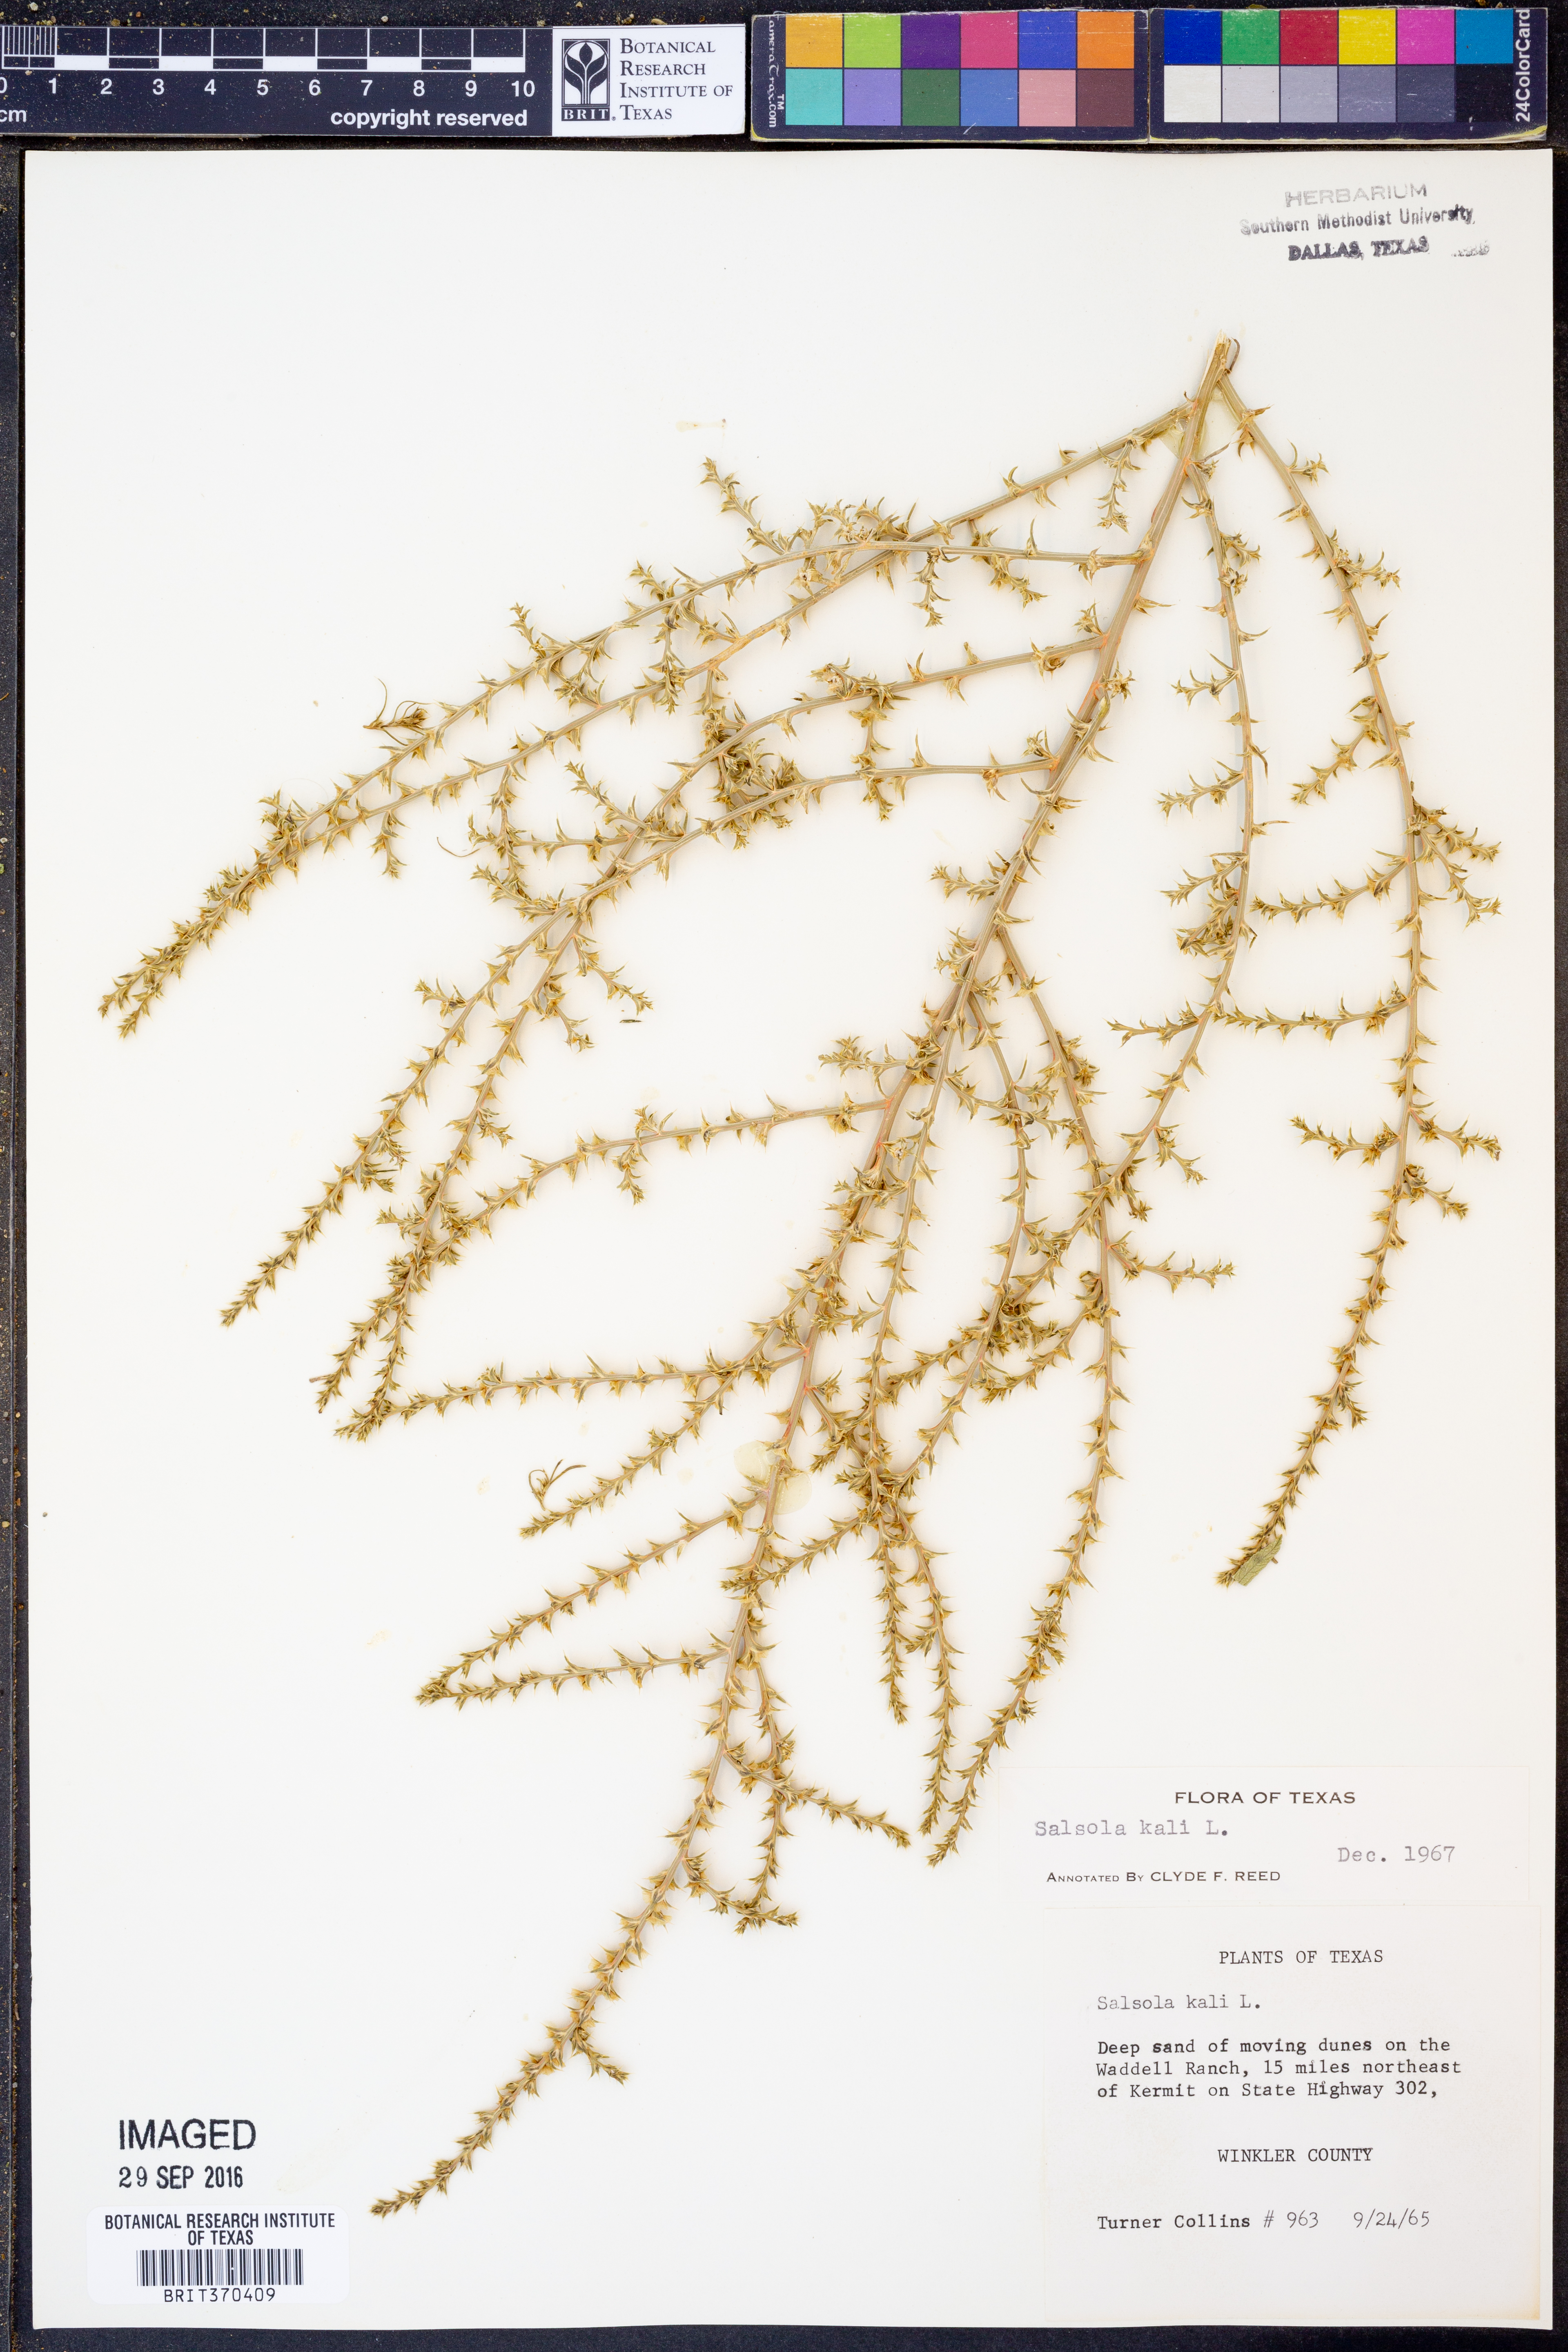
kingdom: Plantae
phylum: Tracheophyta
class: Magnoliopsida
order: Caryophyllales
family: Amaranthaceae
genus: Salsola
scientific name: Salsola kali
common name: Saltwort
